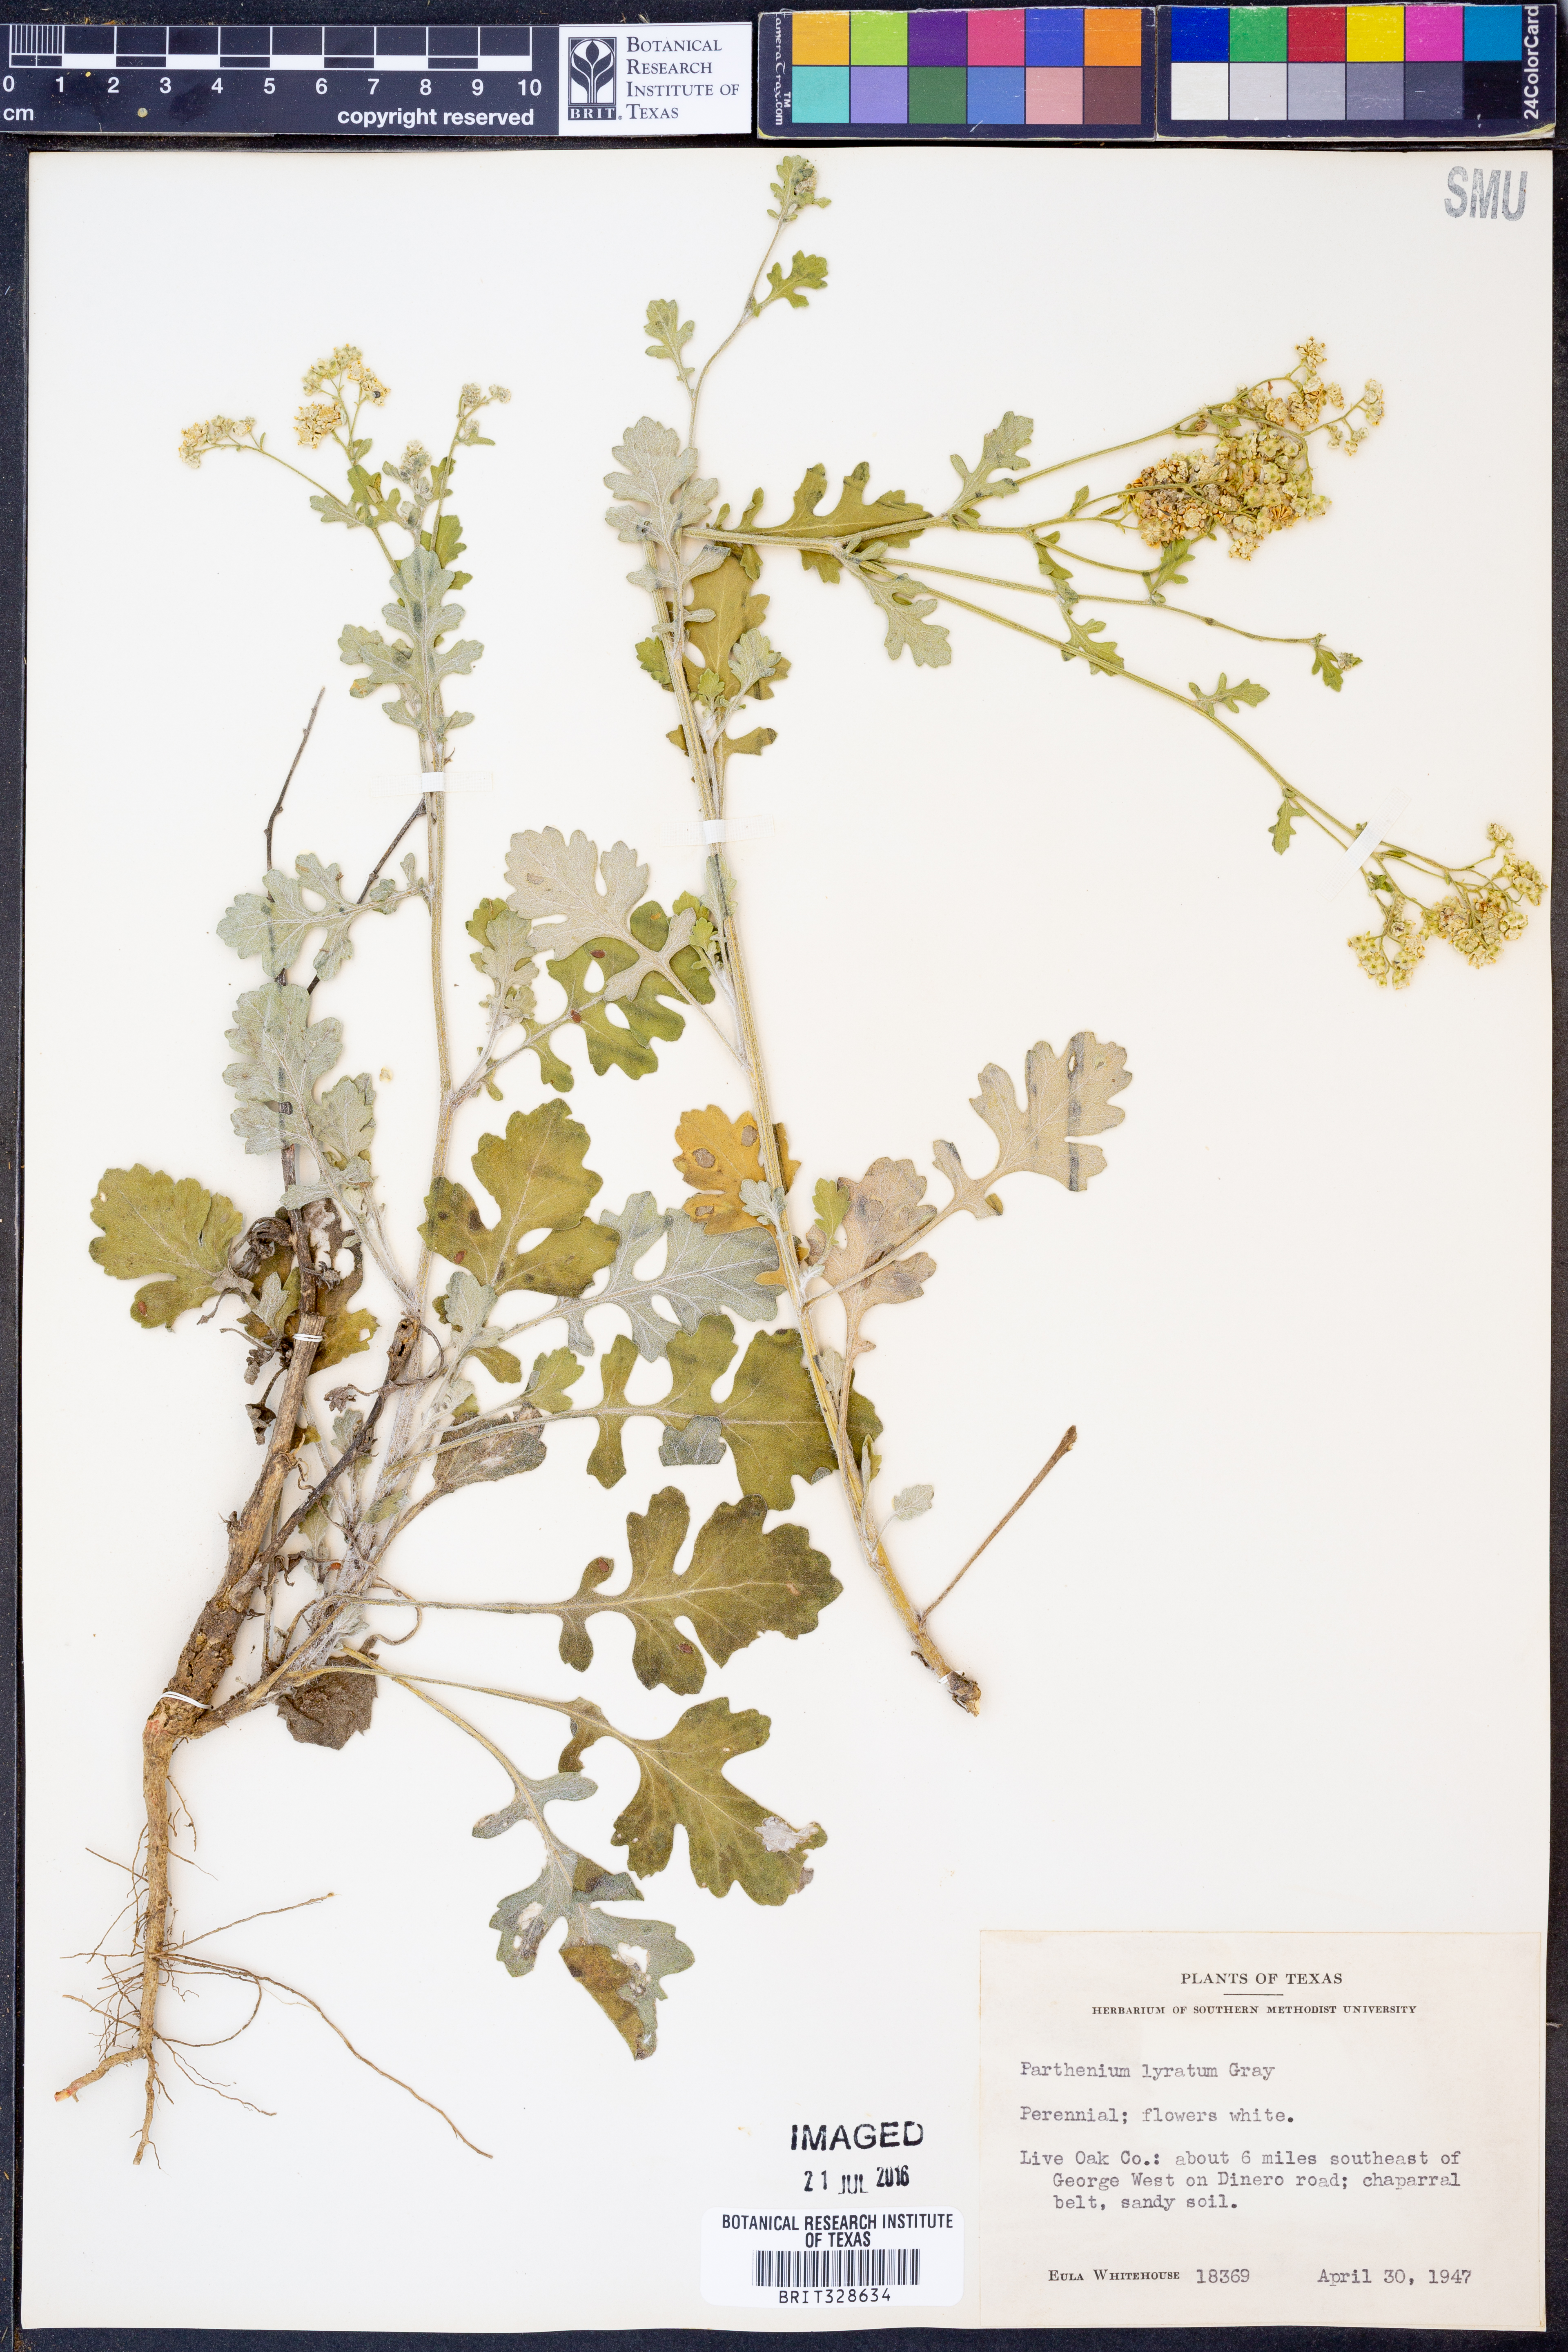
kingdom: Plantae
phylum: Tracheophyta
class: Magnoliopsida
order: Asterales
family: Asteraceae
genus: Parthenium
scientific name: Parthenium confertum
